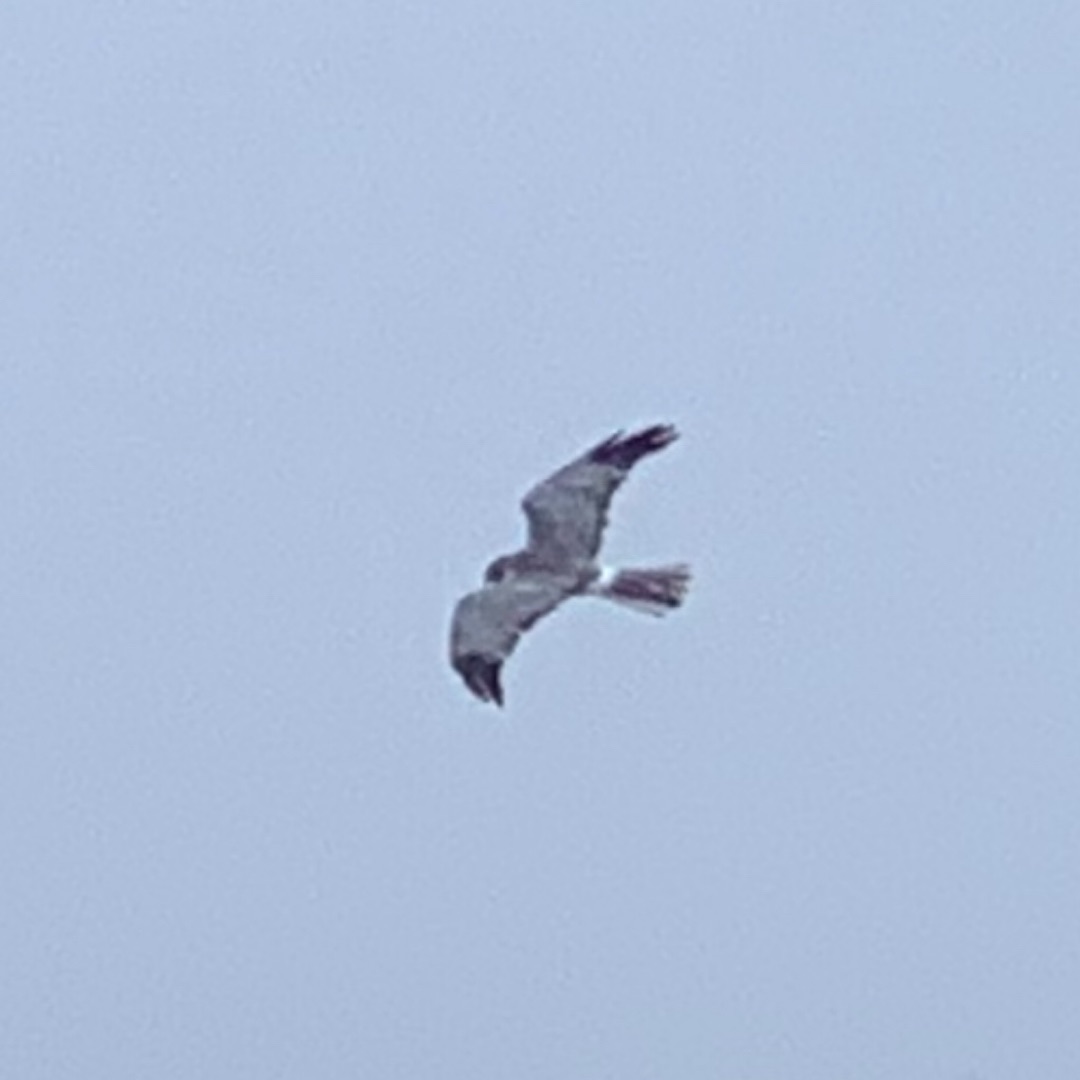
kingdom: Animalia
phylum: Chordata
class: Aves
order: Accipitriformes
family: Accipitridae
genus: Circus
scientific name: Circus cyaneus
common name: Blå kærhøg
